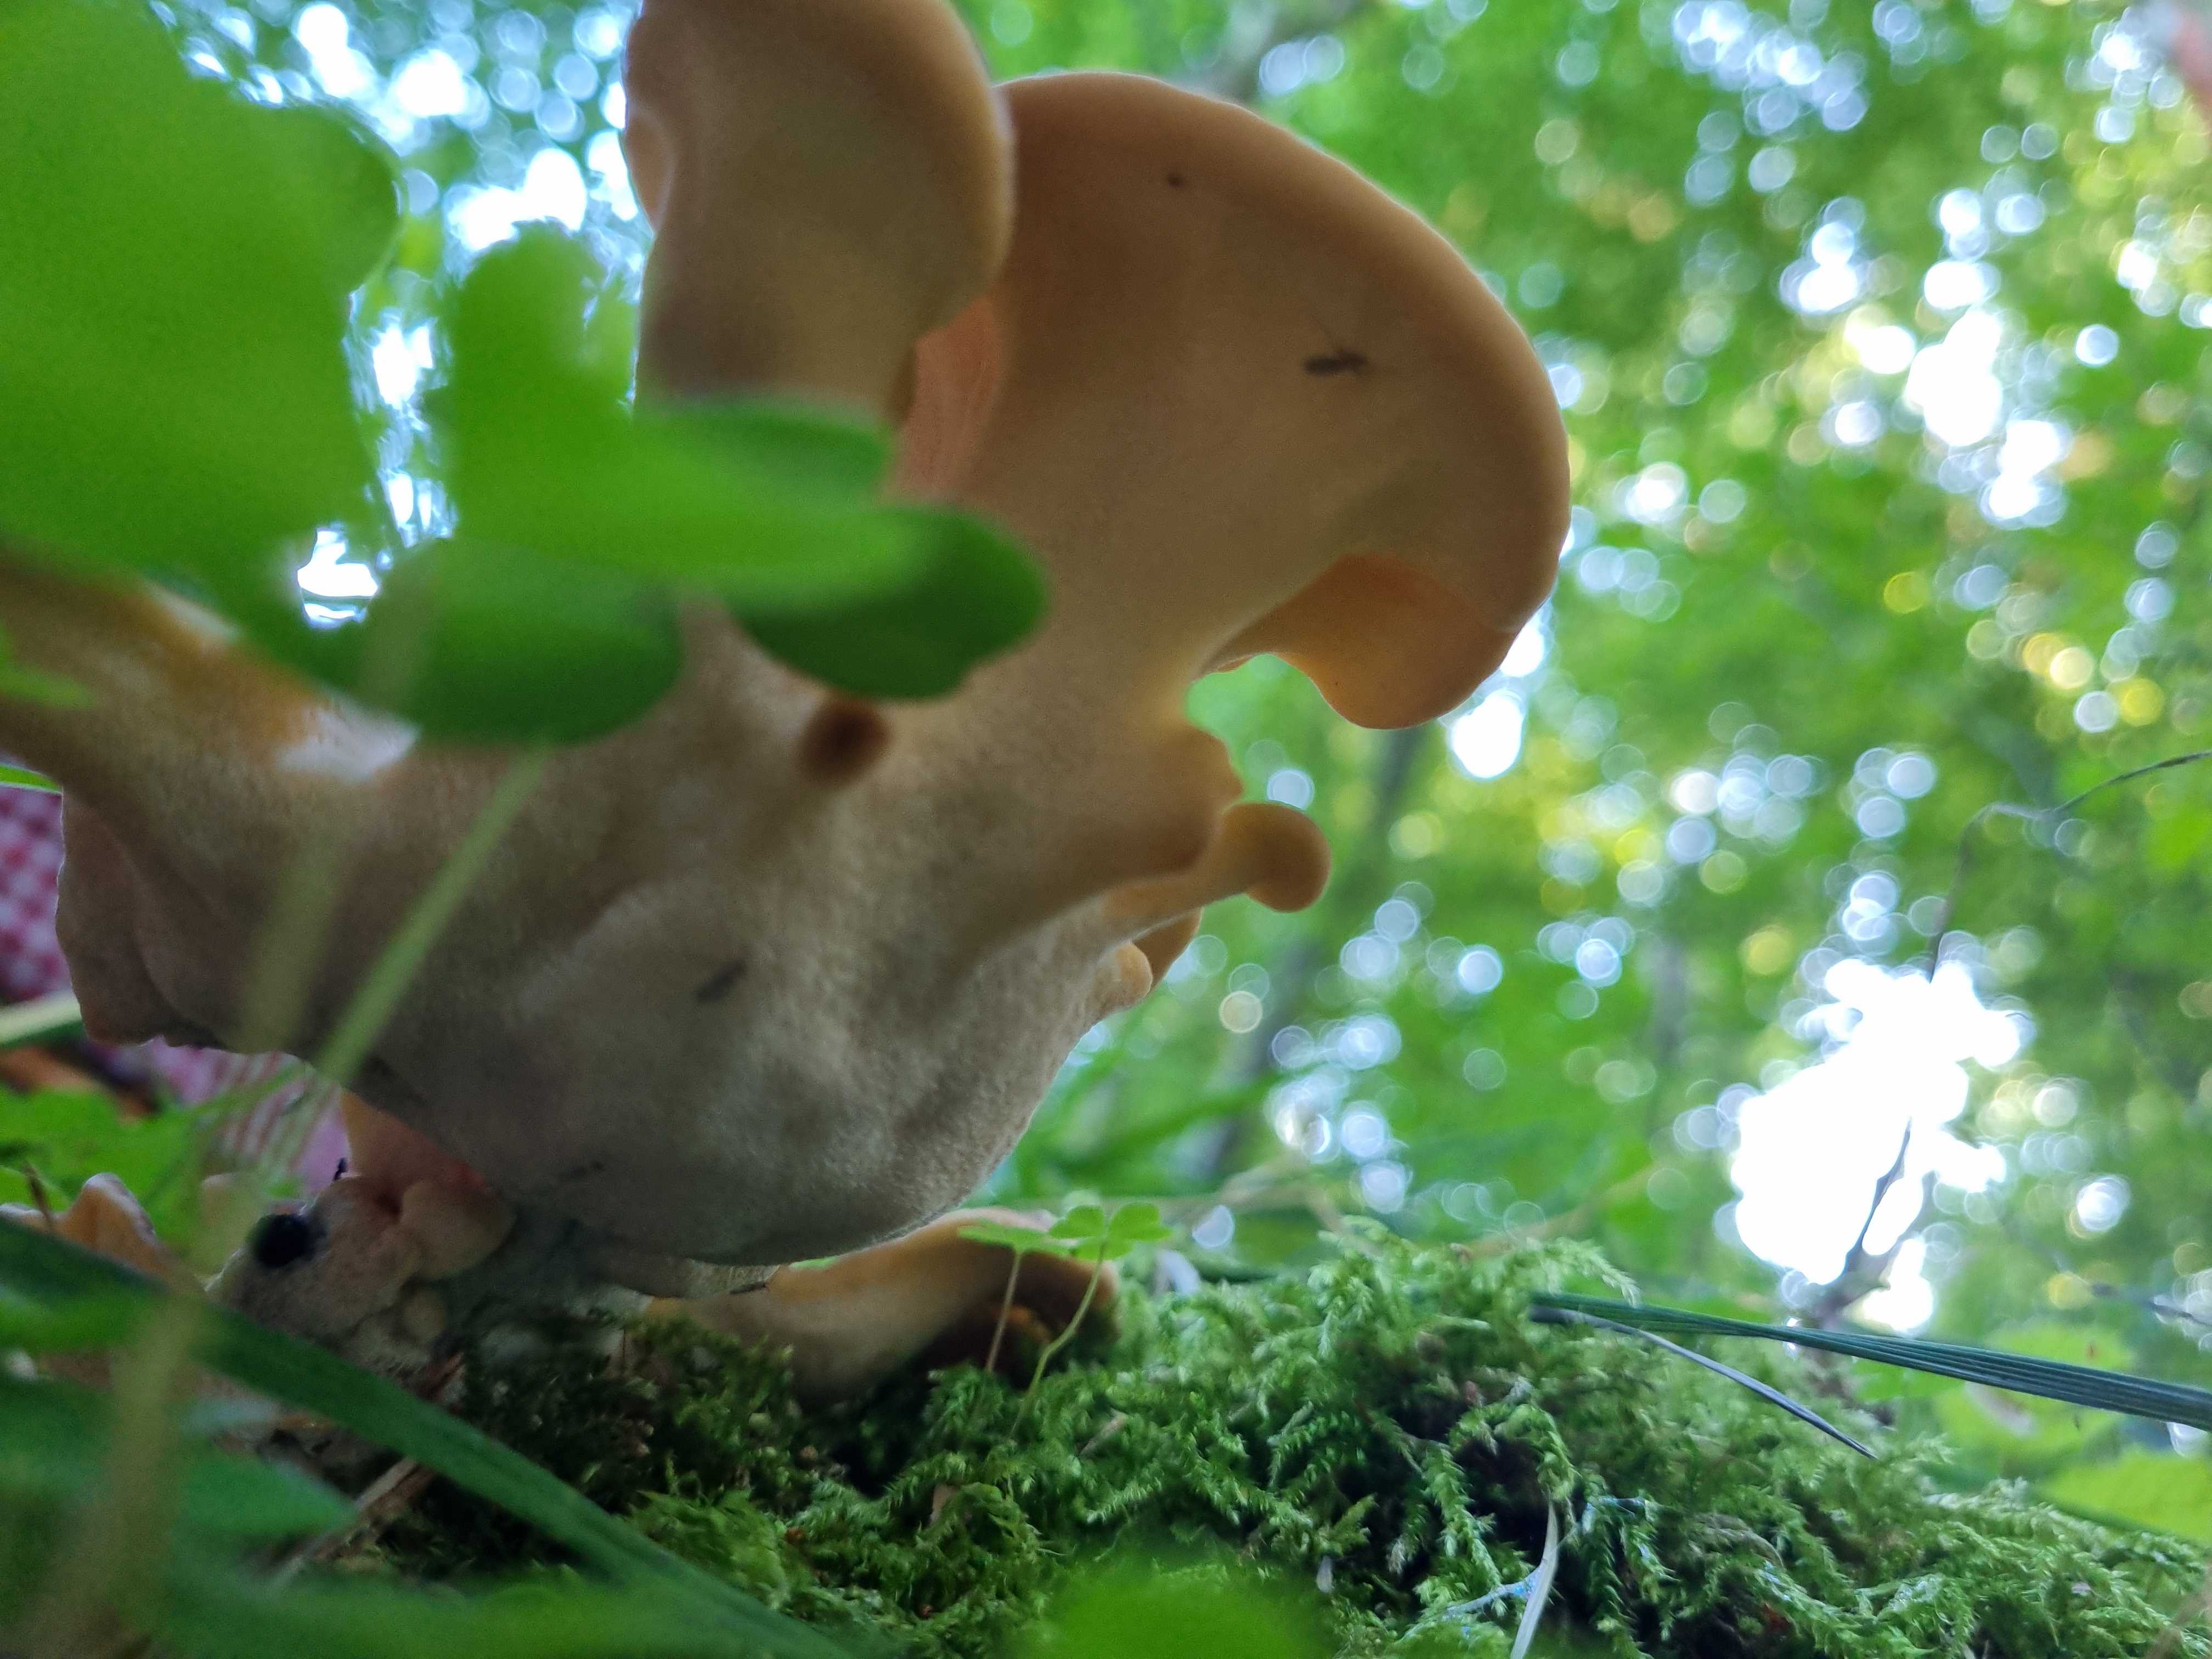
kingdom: Fungi
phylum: Basidiomycota
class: Agaricomycetes
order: Polyporales
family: Meripilaceae
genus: Meripilus
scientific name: Meripilus giganteus
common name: kæmpeporesvamp
